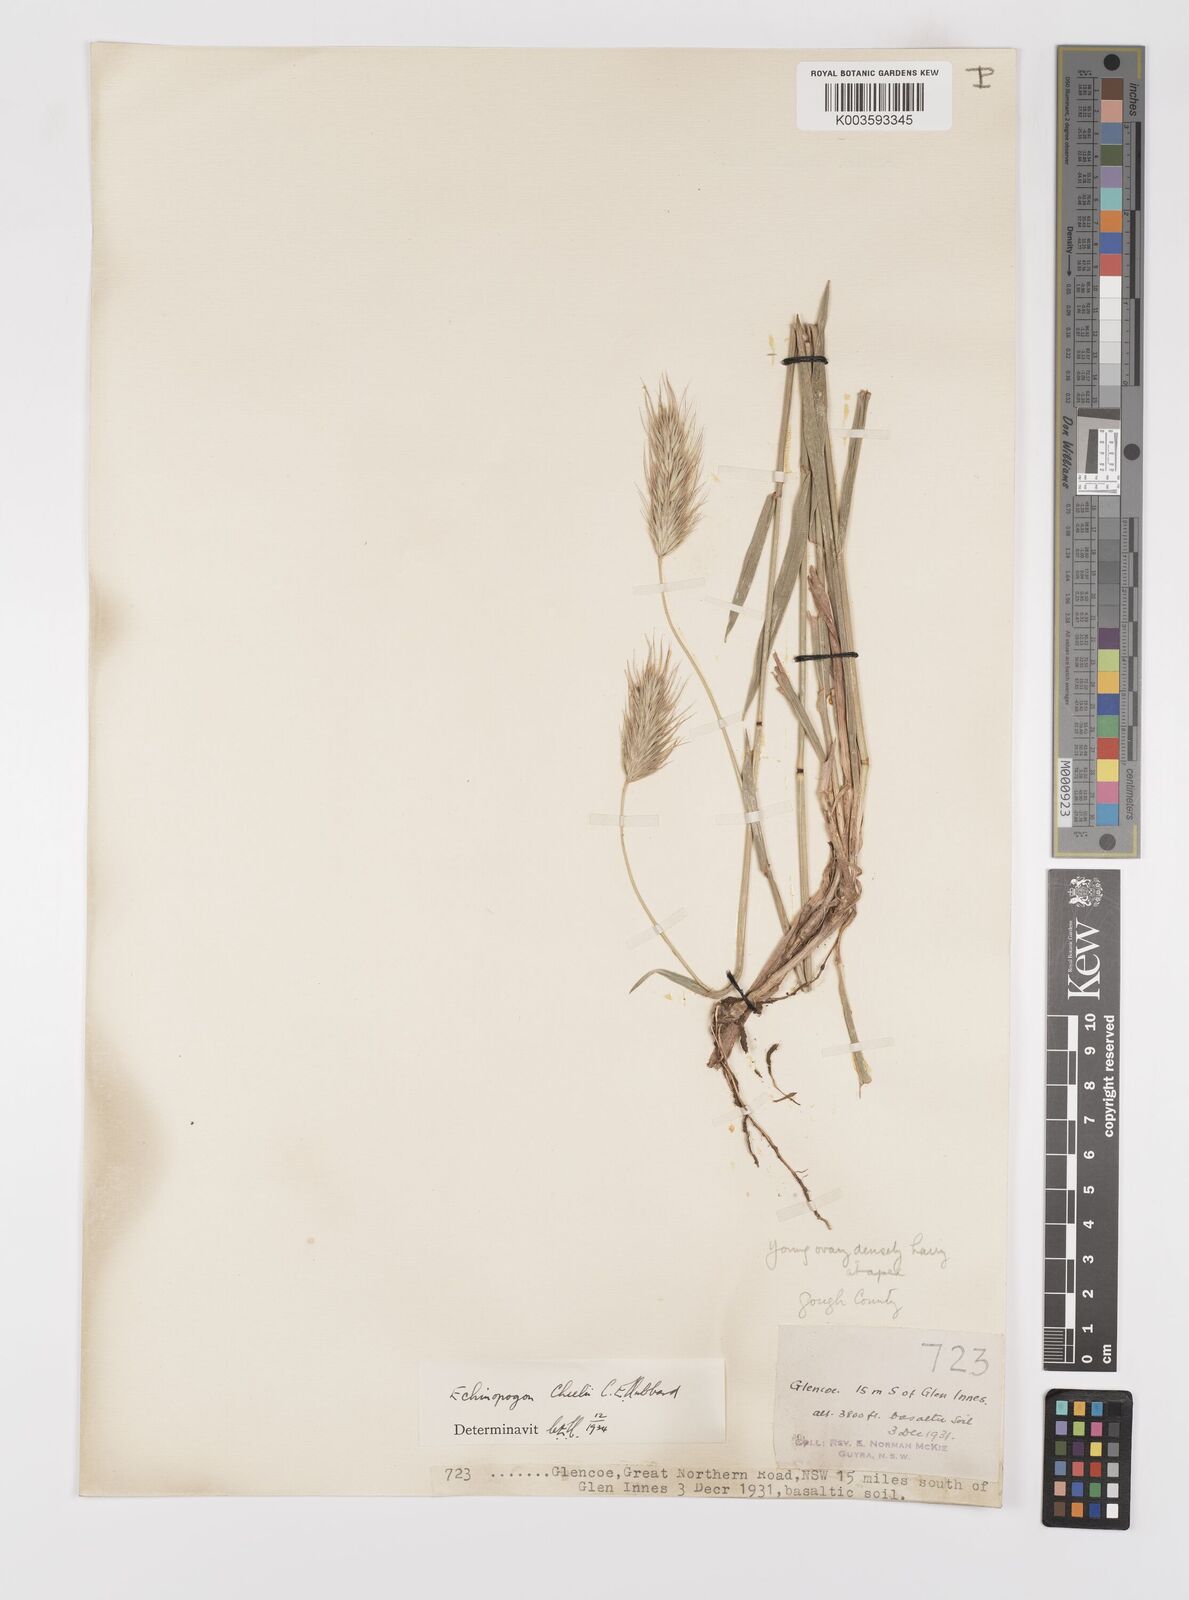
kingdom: Plantae
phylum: Tracheophyta
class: Liliopsida
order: Poales
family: Poaceae
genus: Echinopogon
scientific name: Echinopogon cheelii
